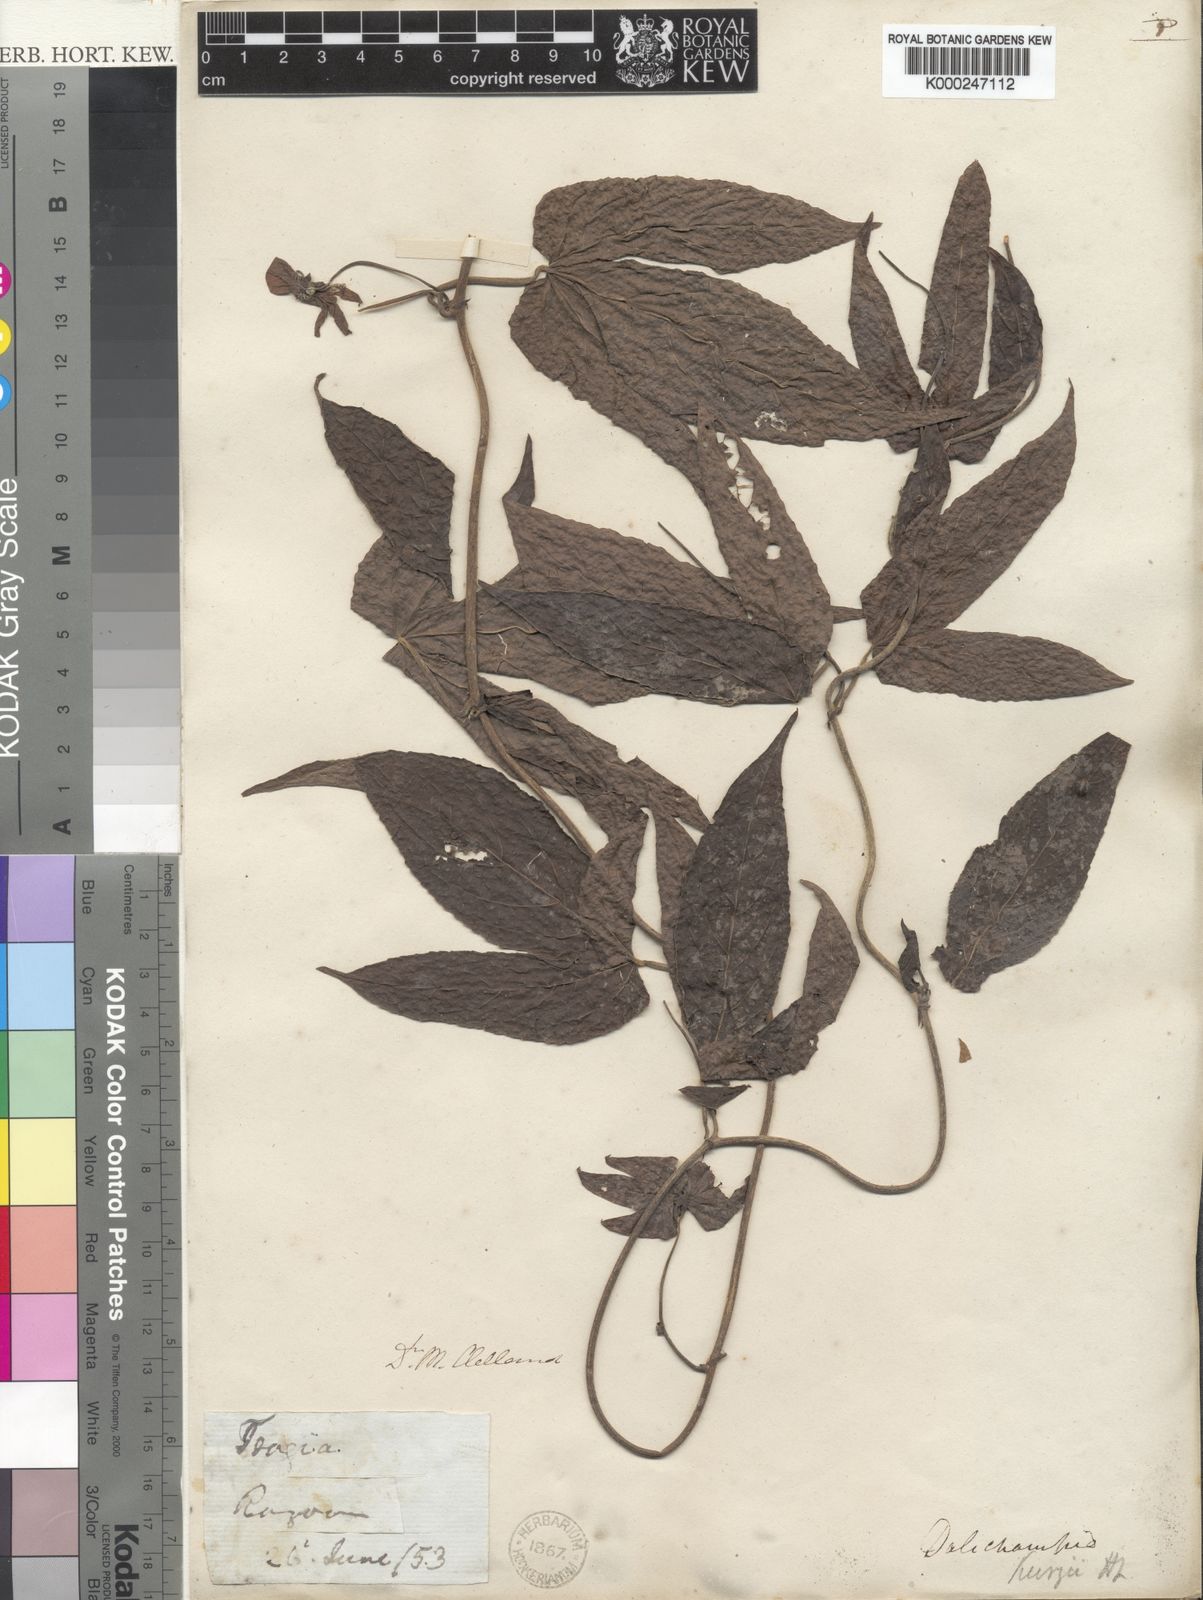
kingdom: Plantae
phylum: Tracheophyta
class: Magnoliopsida
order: Malpighiales
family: Euphorbiaceae
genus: Dalechampia
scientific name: Dalechampia scandens
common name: Spurgecreeper
